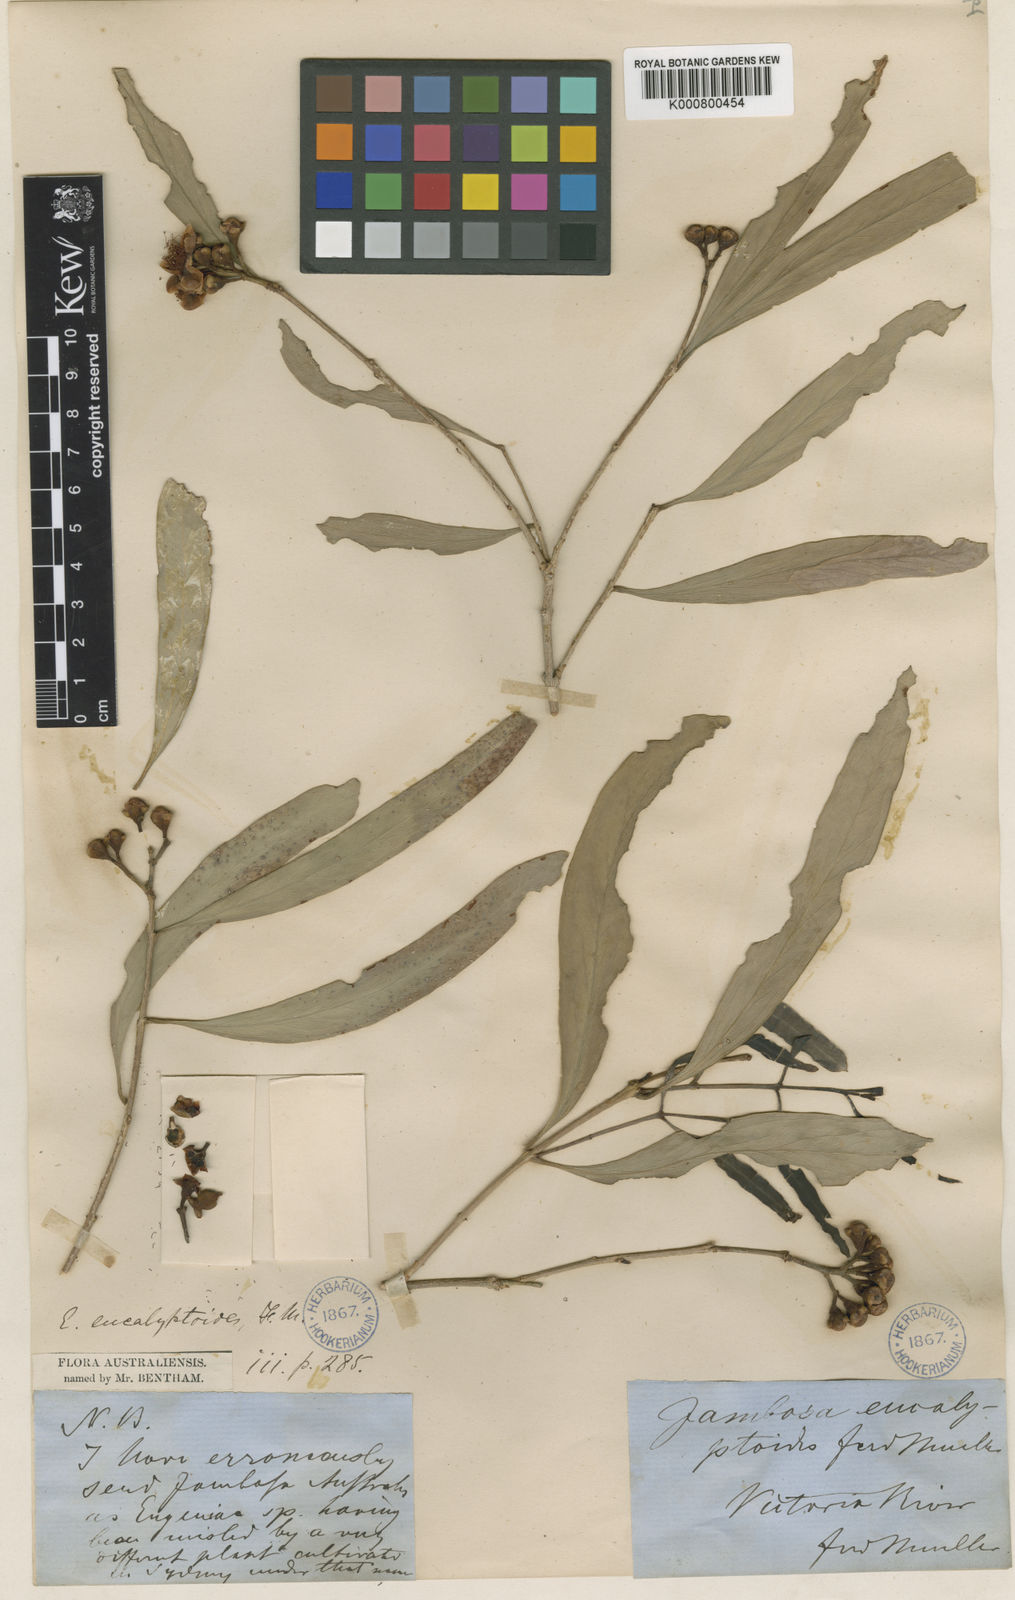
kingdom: Plantae
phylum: Tracheophyta
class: Magnoliopsida
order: Myrtales
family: Myrtaceae
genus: Syzygium
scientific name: Syzygium eucalyptoides
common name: Native apple
